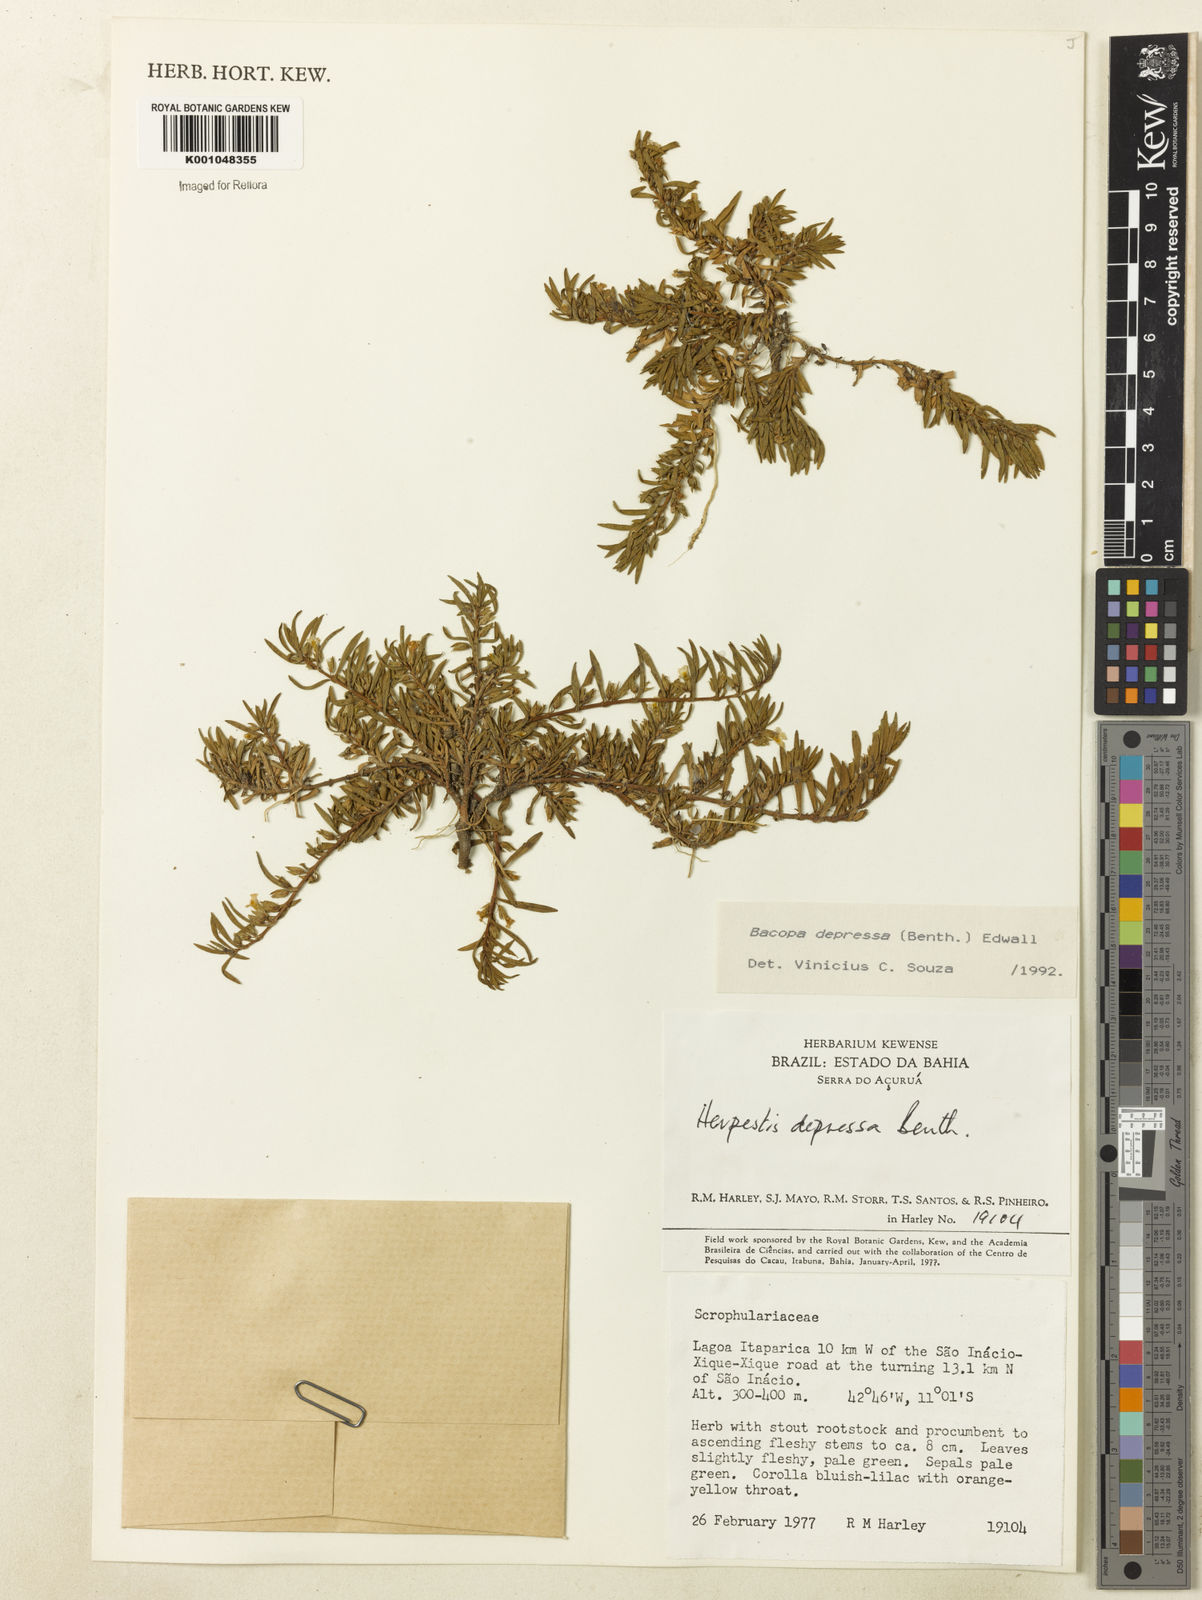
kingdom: Plantae
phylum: Tracheophyta
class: Magnoliopsida
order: Lamiales
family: Plantaginaceae
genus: Bacopa
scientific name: Bacopa depressa
